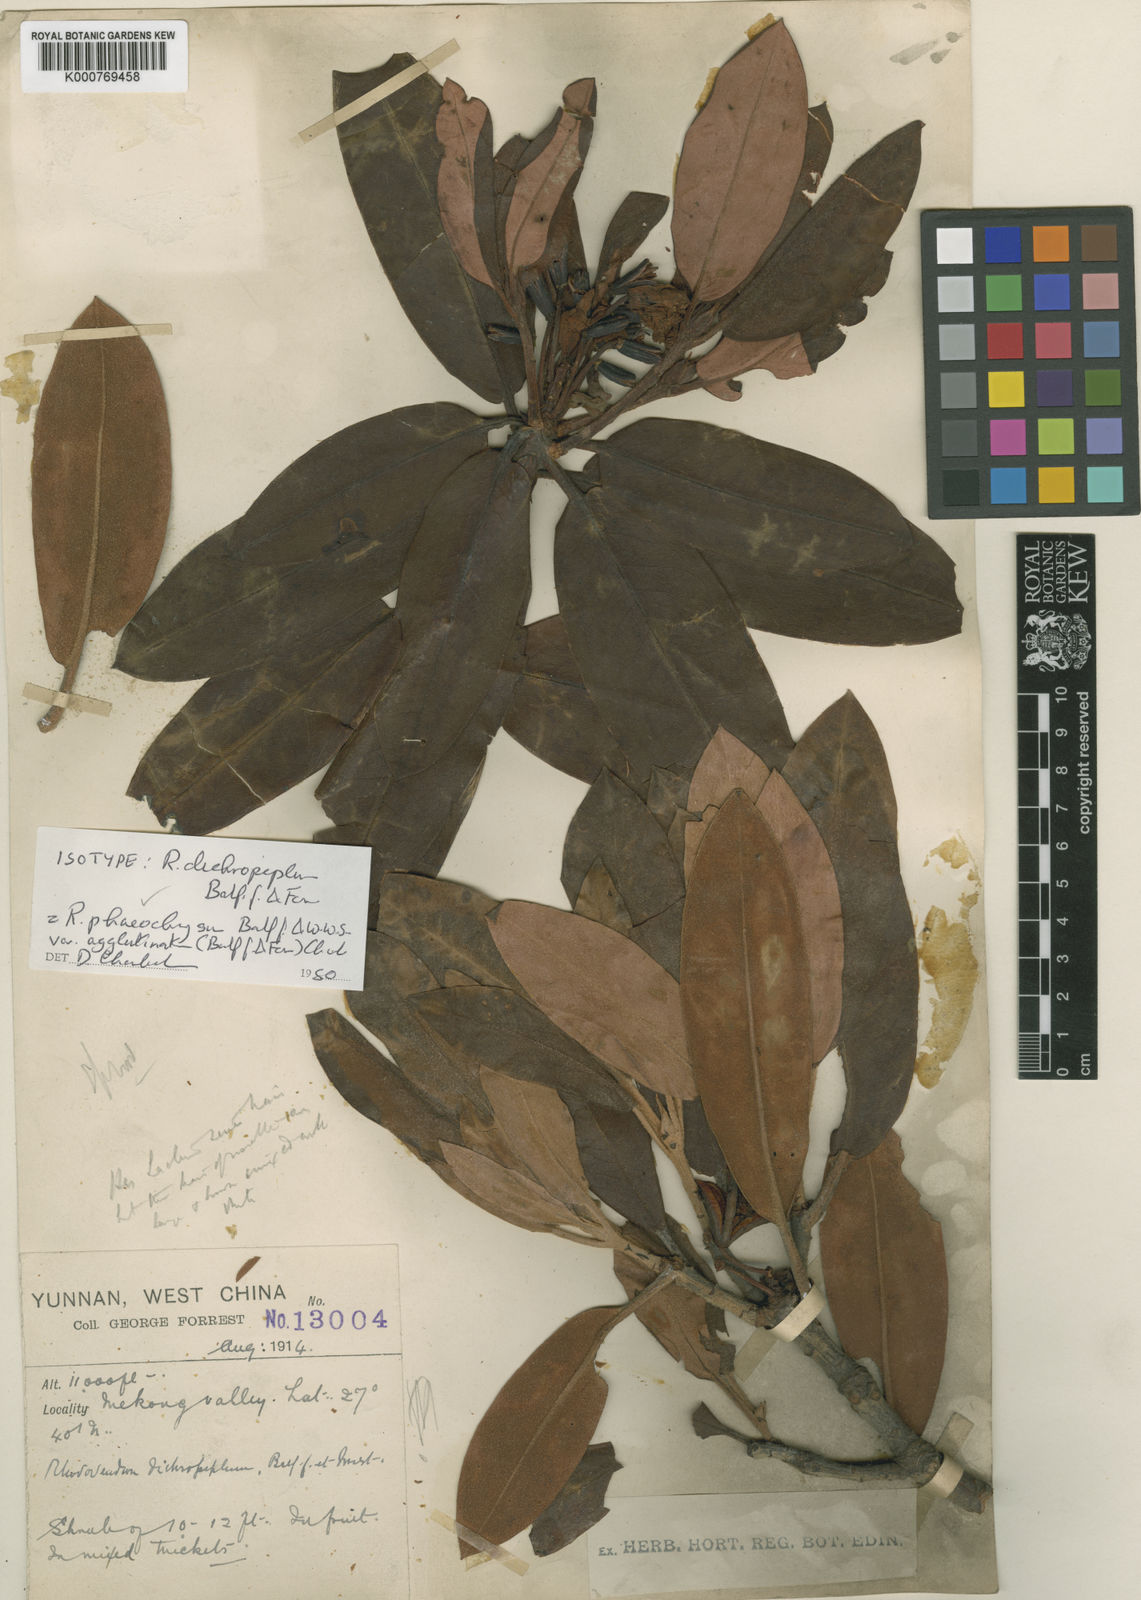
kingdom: Plantae
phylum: Tracheophyta
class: Magnoliopsida
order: Ericales
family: Ericaceae
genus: Rhododendron
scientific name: Rhododendron phaeochrysum
